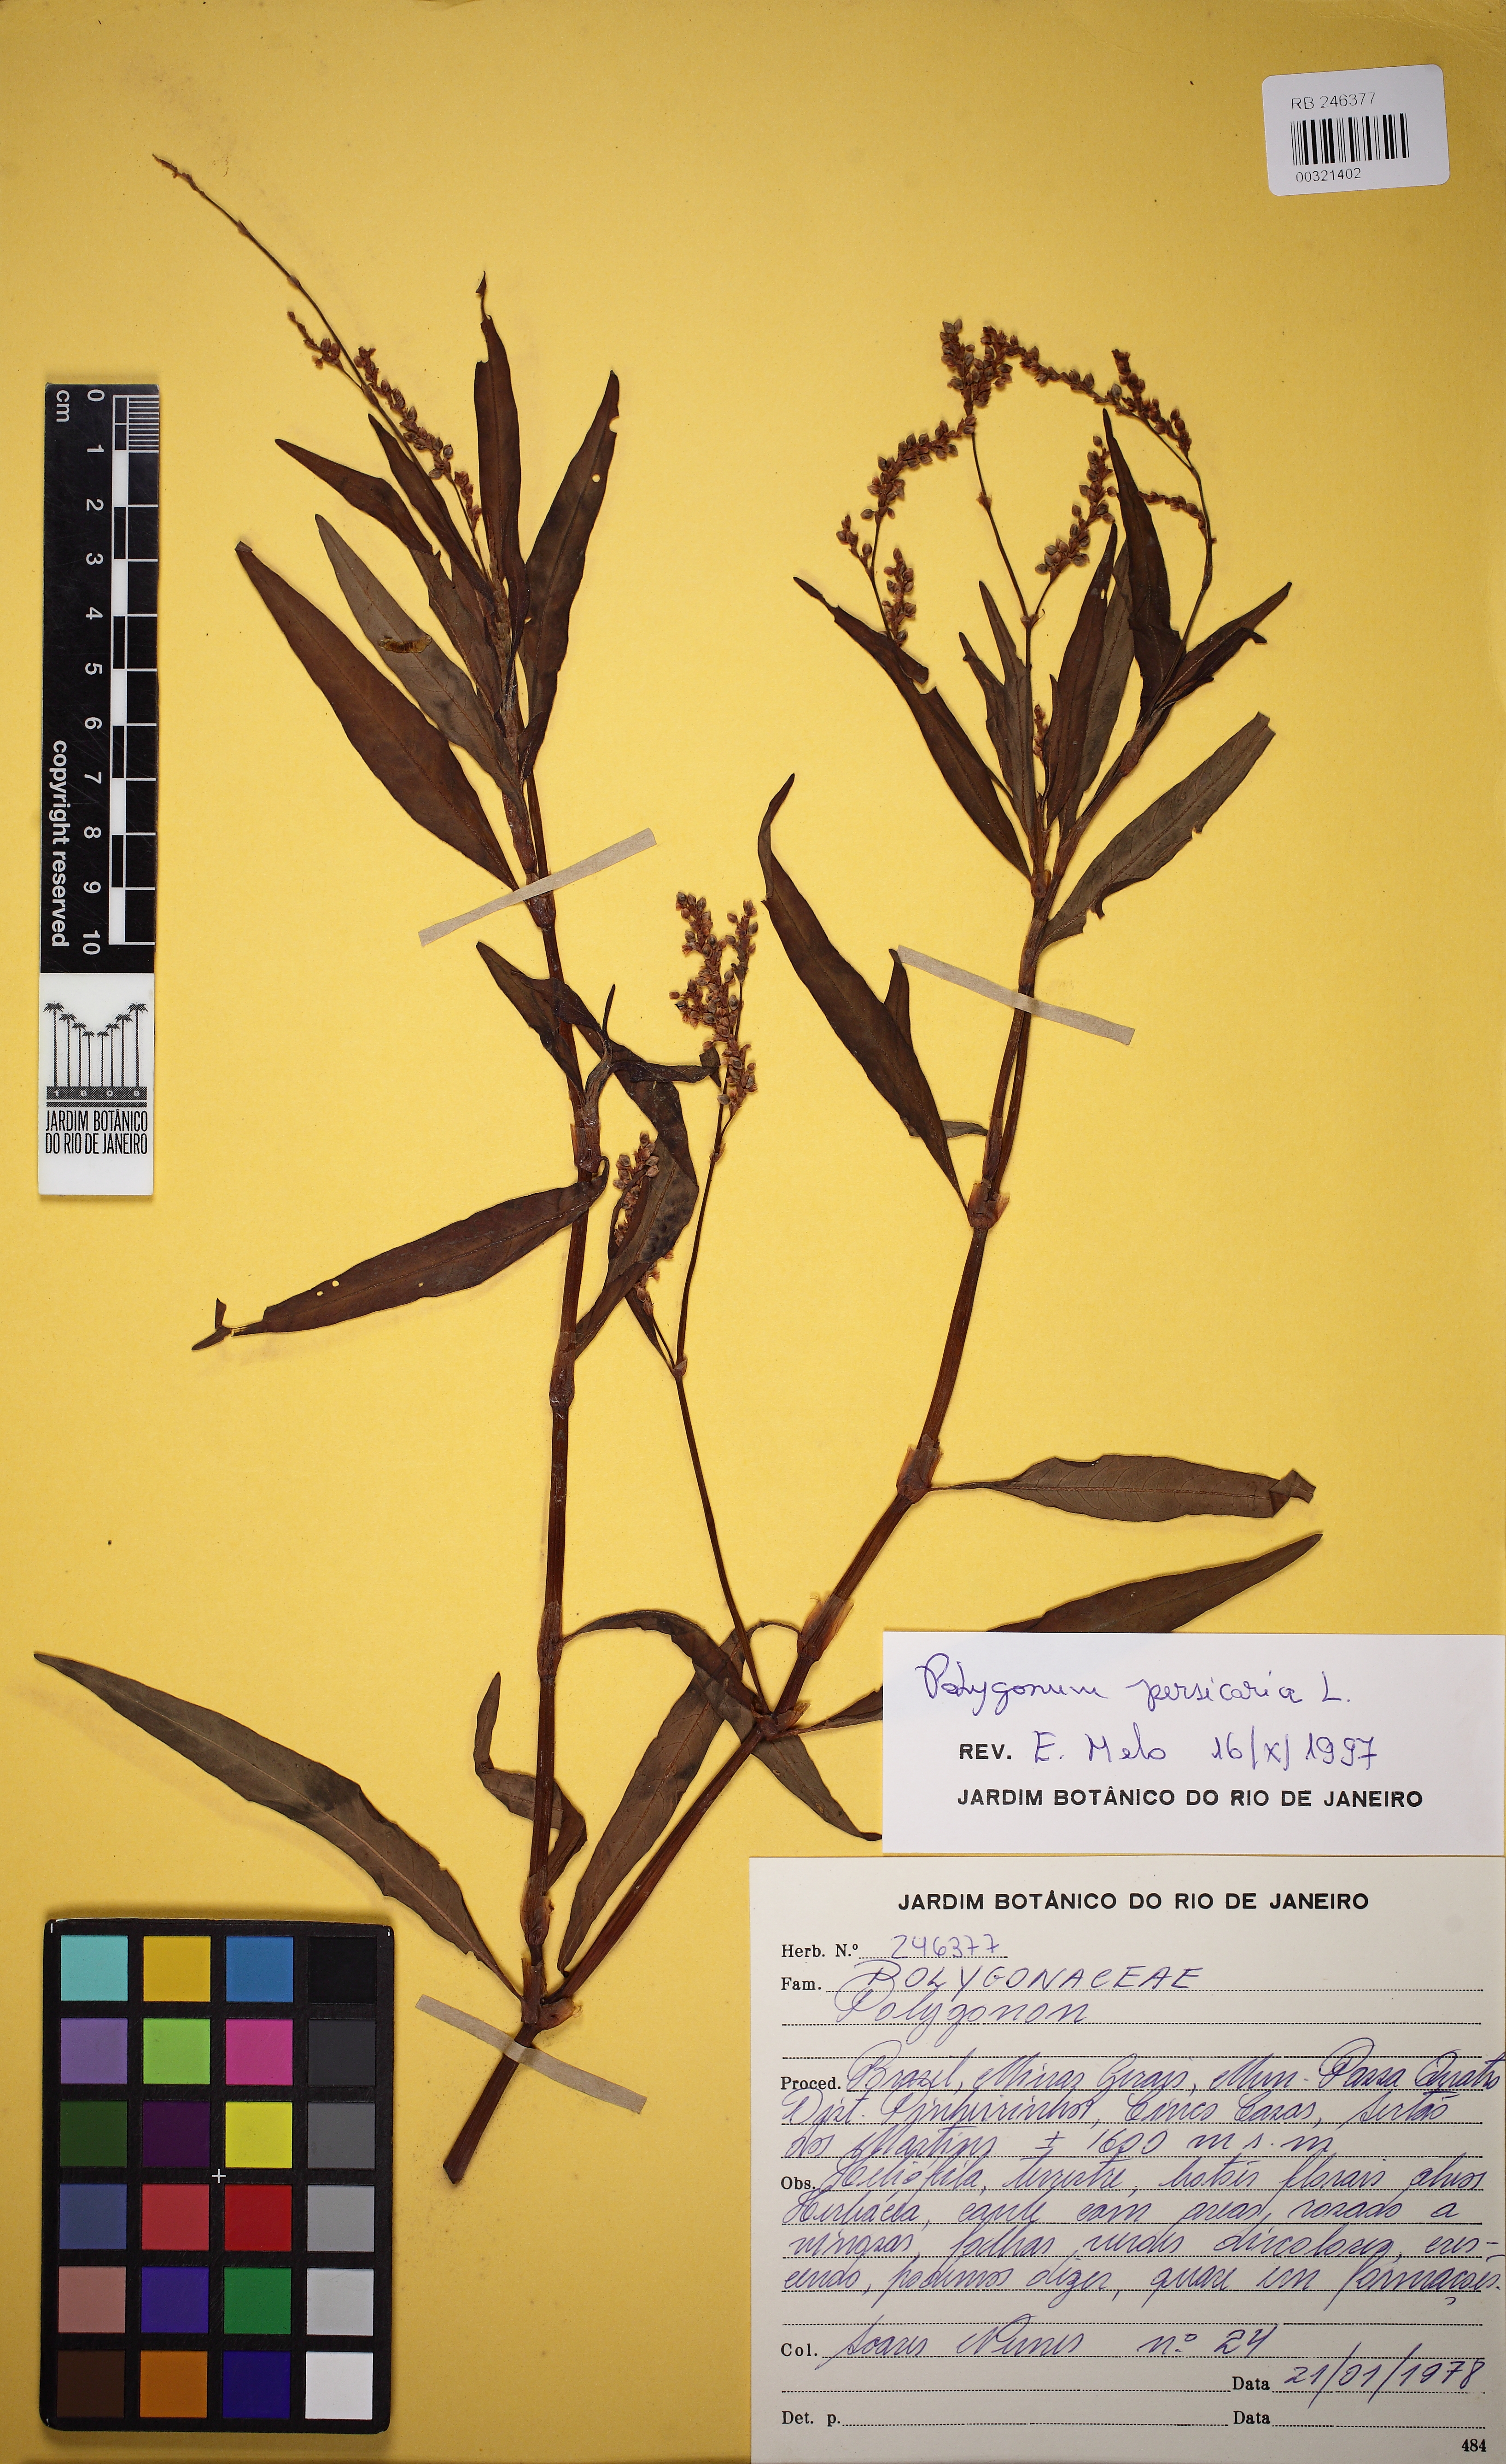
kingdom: Plantae
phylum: Tracheophyta
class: Magnoliopsida
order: Caryophyllales
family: Polygonaceae
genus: Persicaria
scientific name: Persicaria maculosa
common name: Redshank
